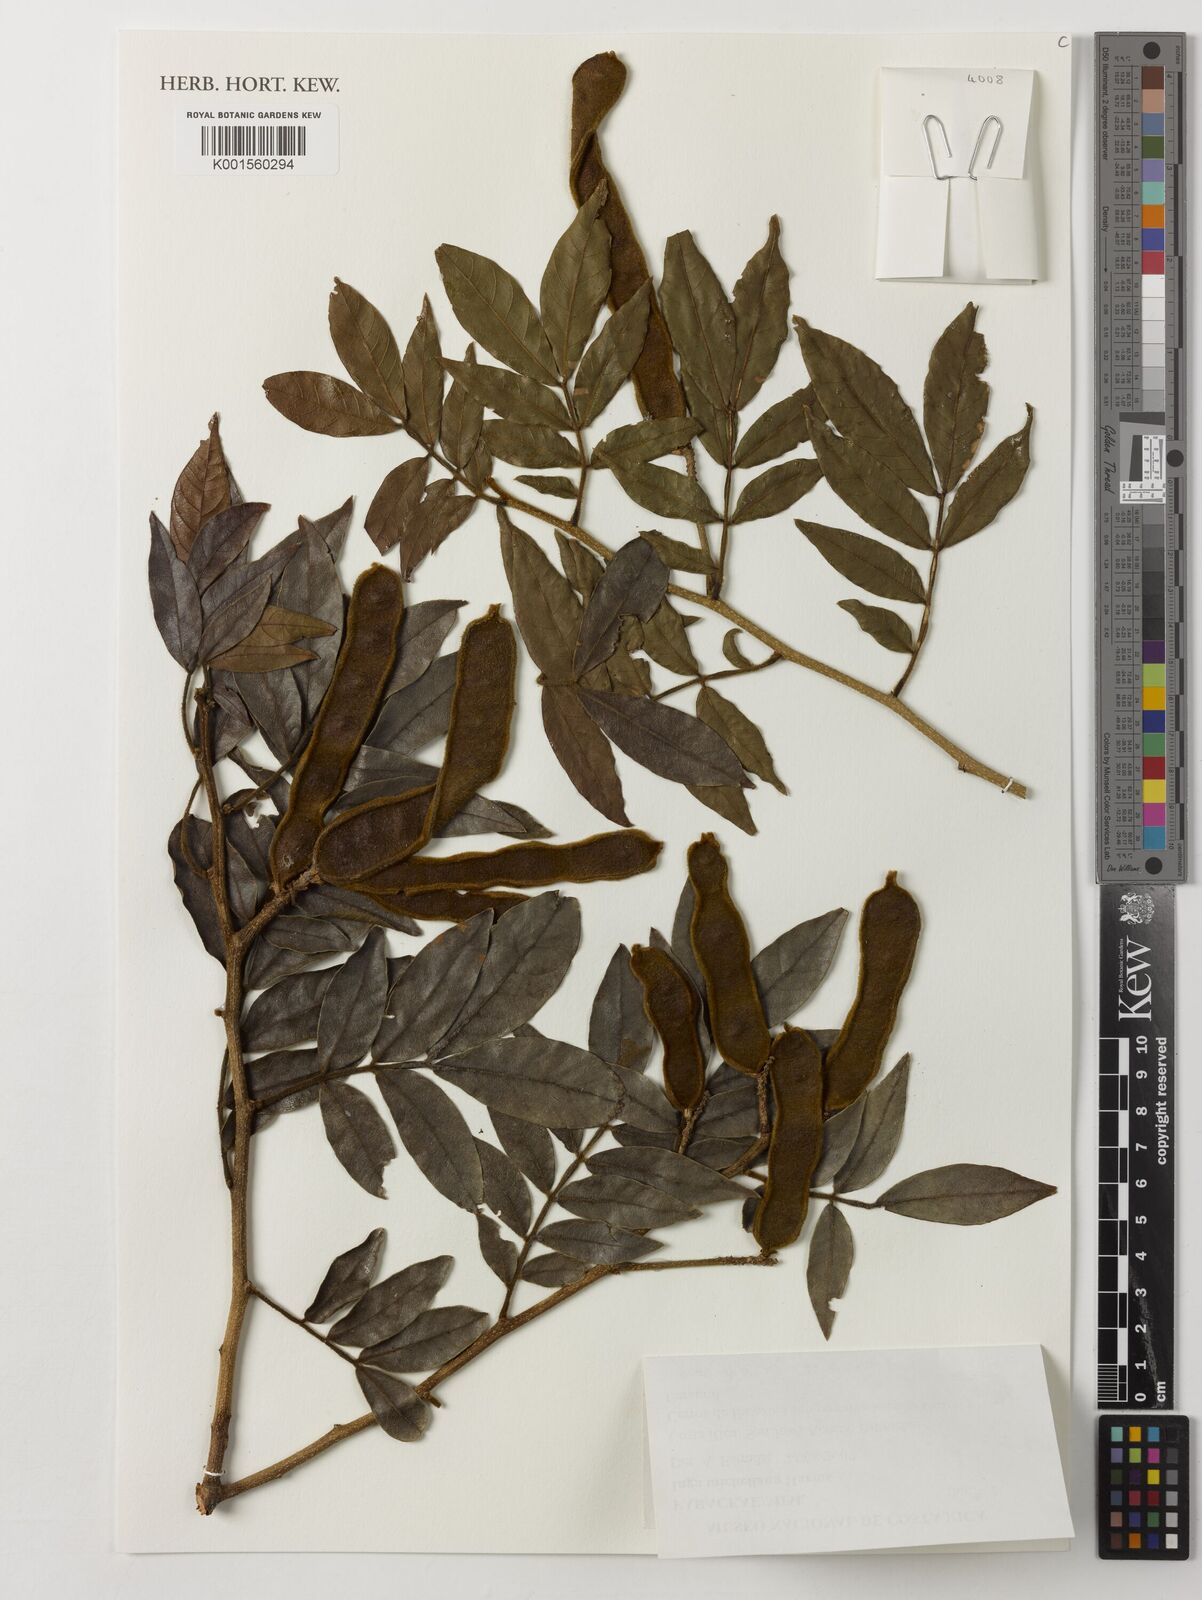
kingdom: Plantae
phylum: Tracheophyta
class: Magnoliopsida
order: Fabales
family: Fabaceae
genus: Inga
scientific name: Inga flexuosa
